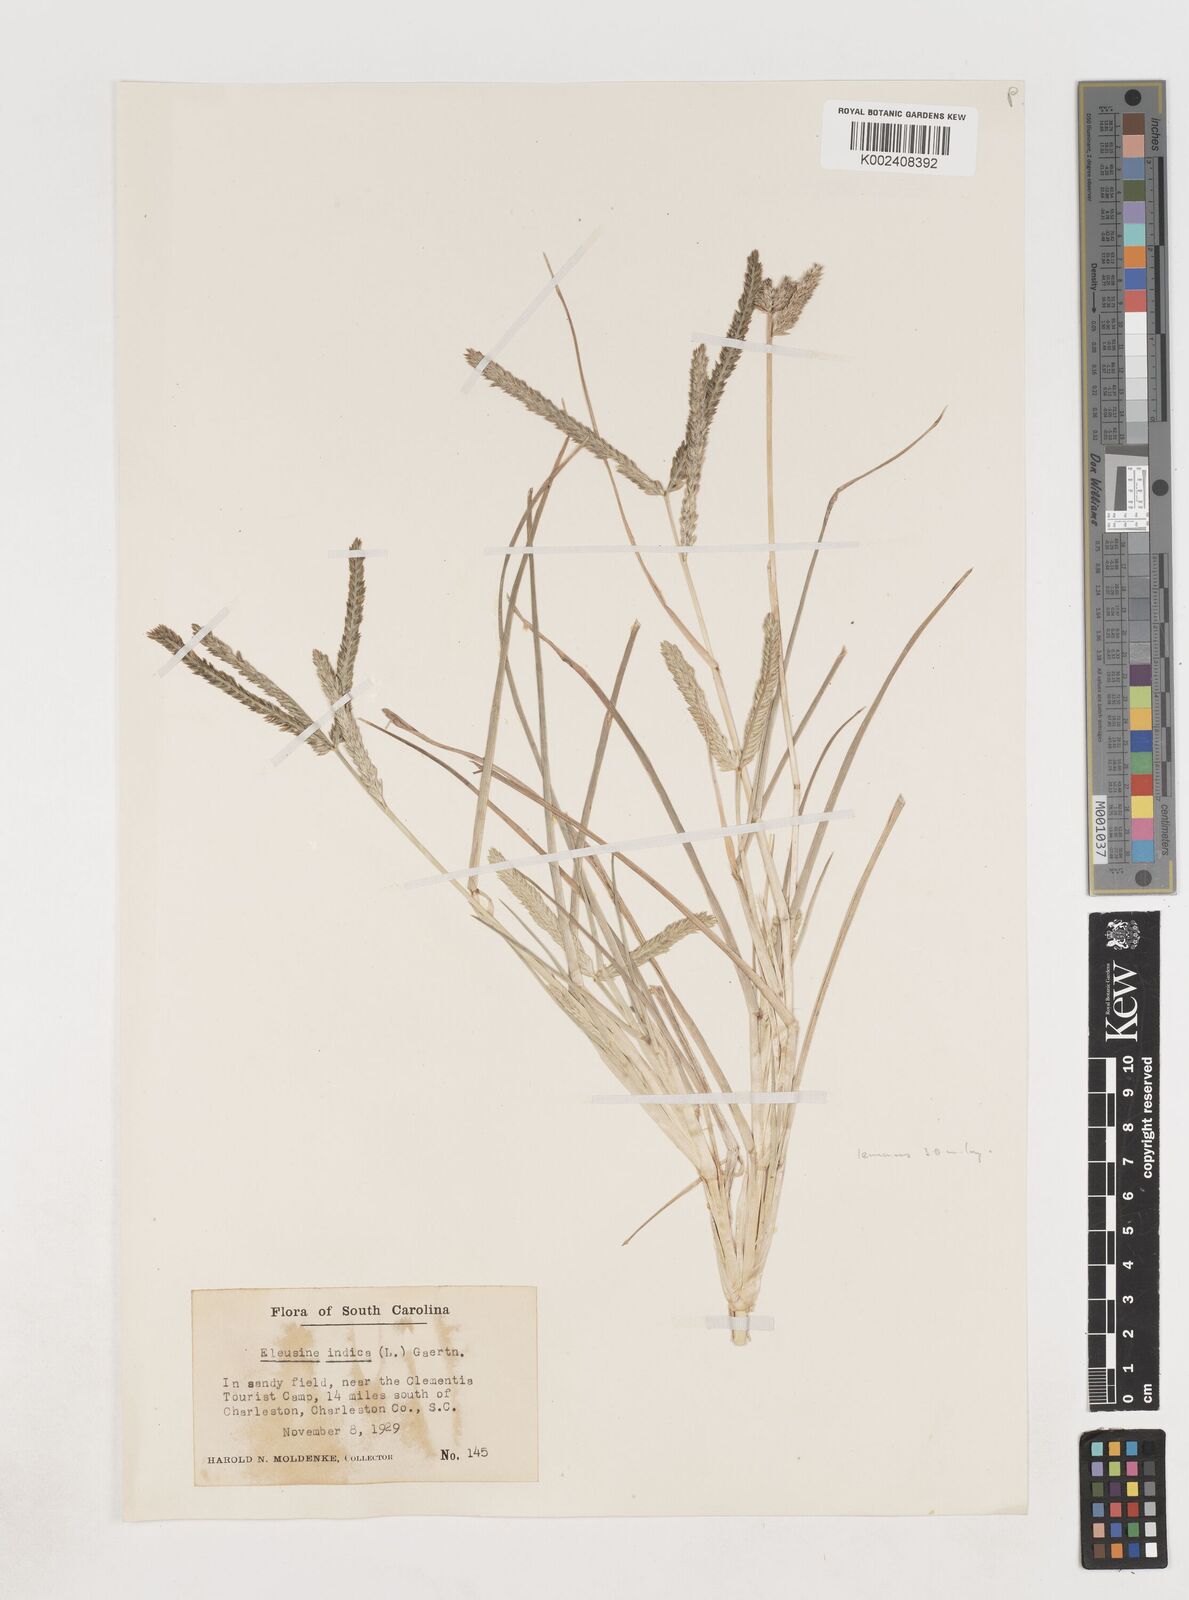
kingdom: Plantae
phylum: Tracheophyta
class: Liliopsida
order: Poales
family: Poaceae
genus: Eleusine
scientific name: Eleusine indica
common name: Yard-grass
